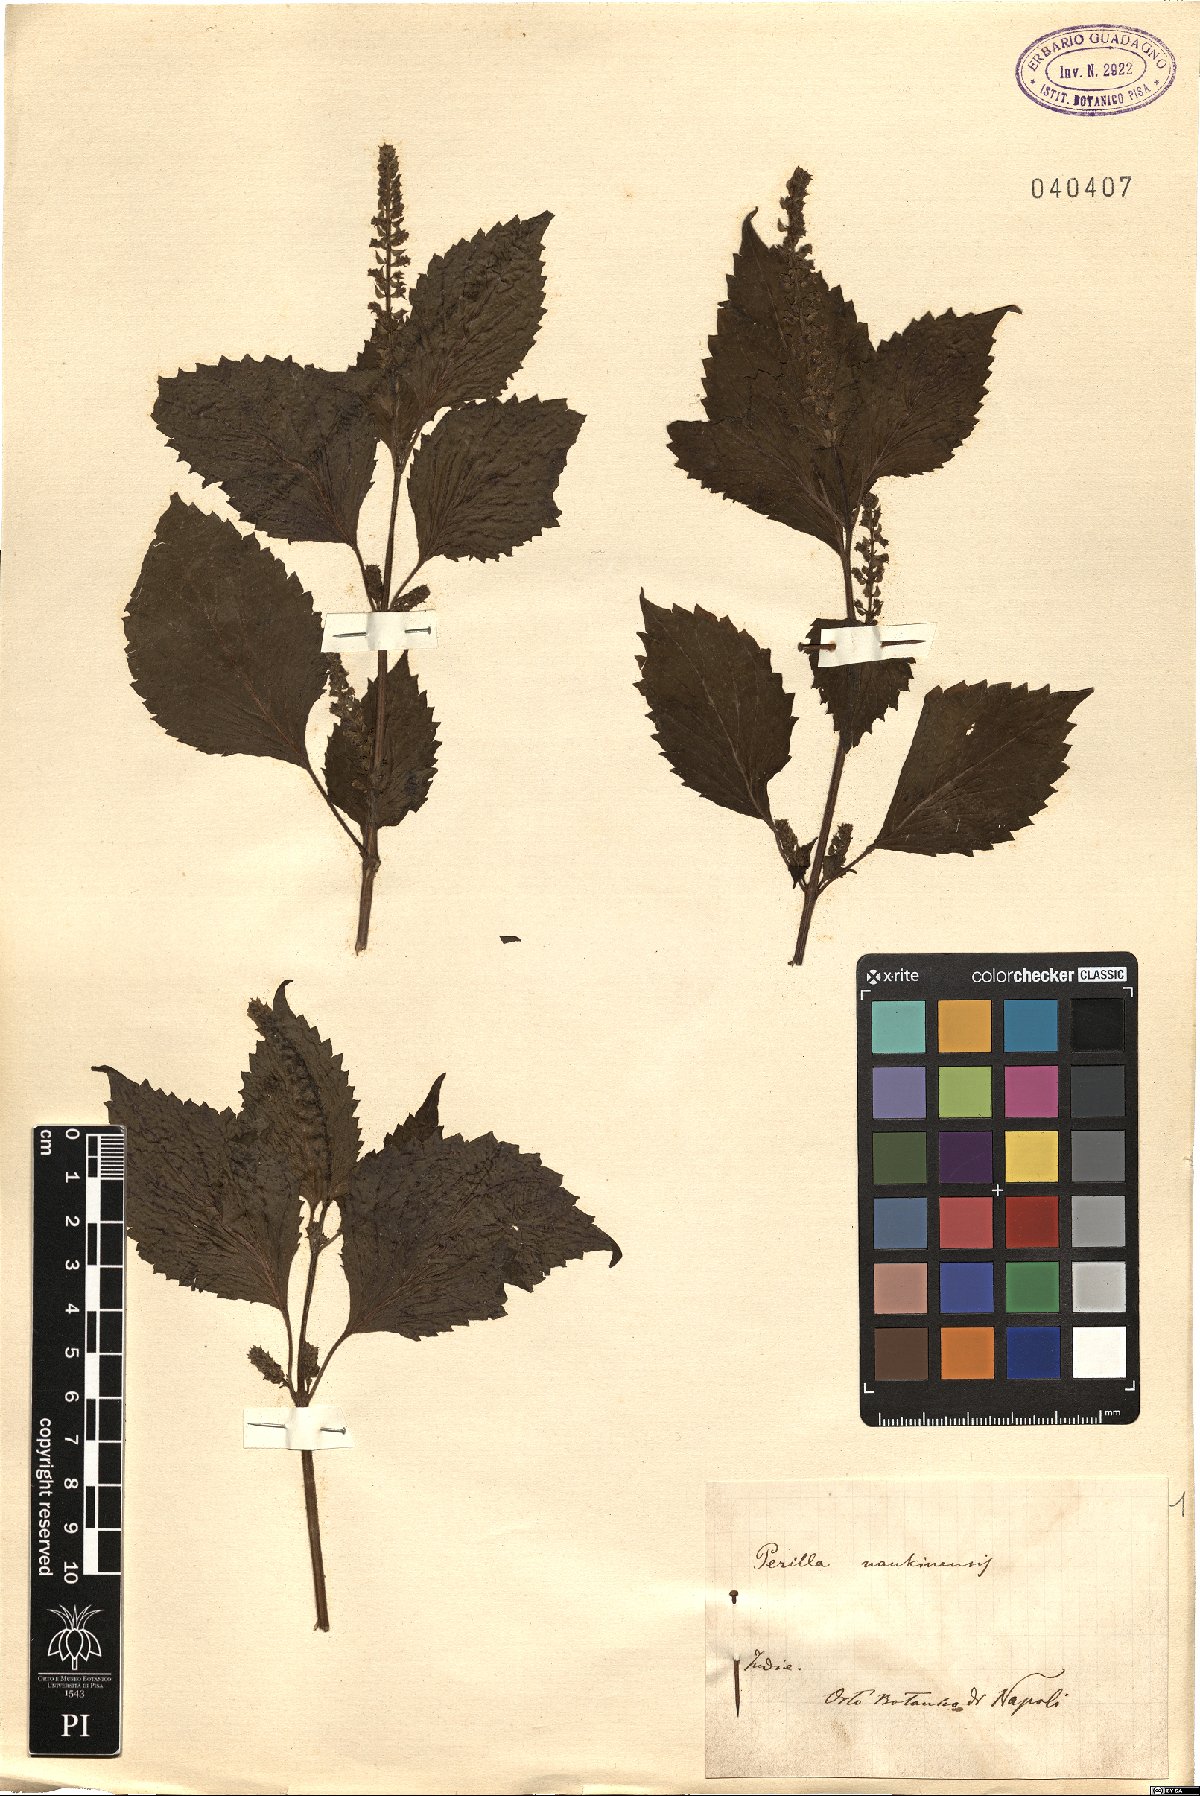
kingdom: Plantae
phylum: Tracheophyta
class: Magnoliopsida
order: Lamiales
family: Lamiaceae
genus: Perilla
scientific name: Perilla frutescens
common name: Perilla
